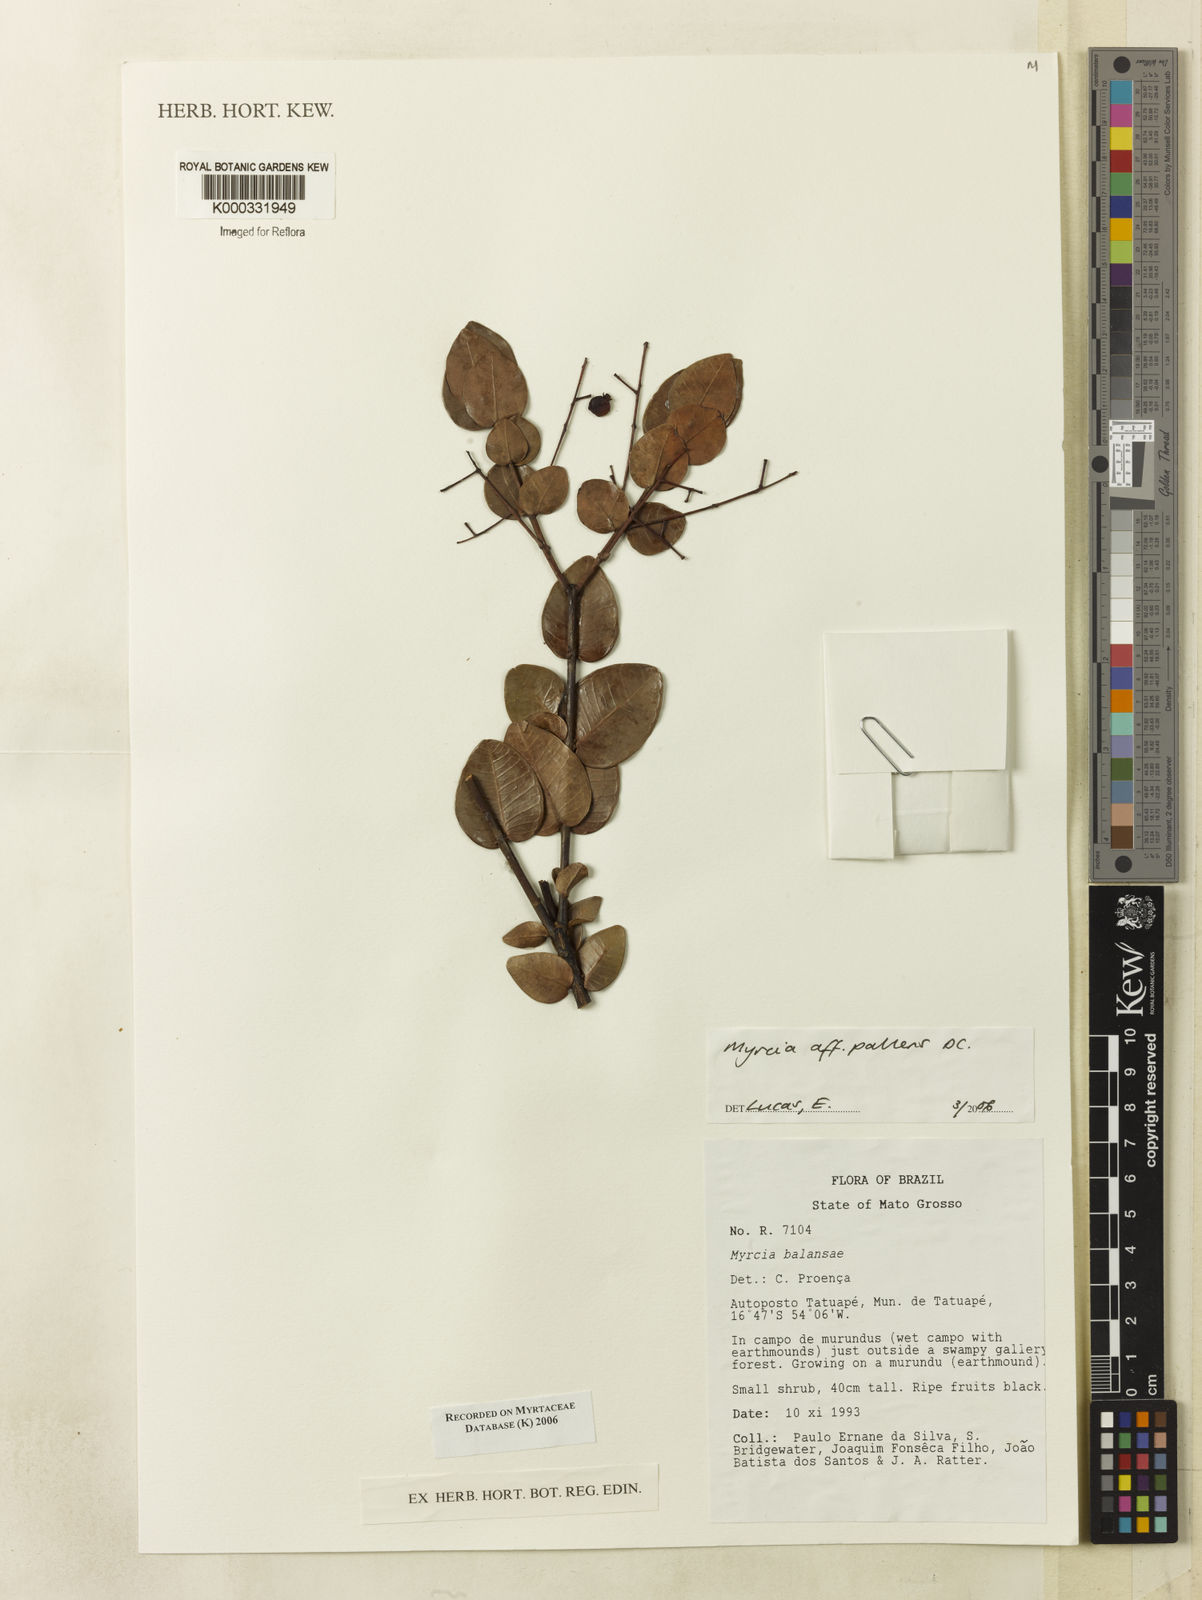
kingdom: Plantae
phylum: Tracheophyta
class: Magnoliopsida
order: Myrtales
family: Myrtaceae
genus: Myrcia
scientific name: Myrcia guianensis
